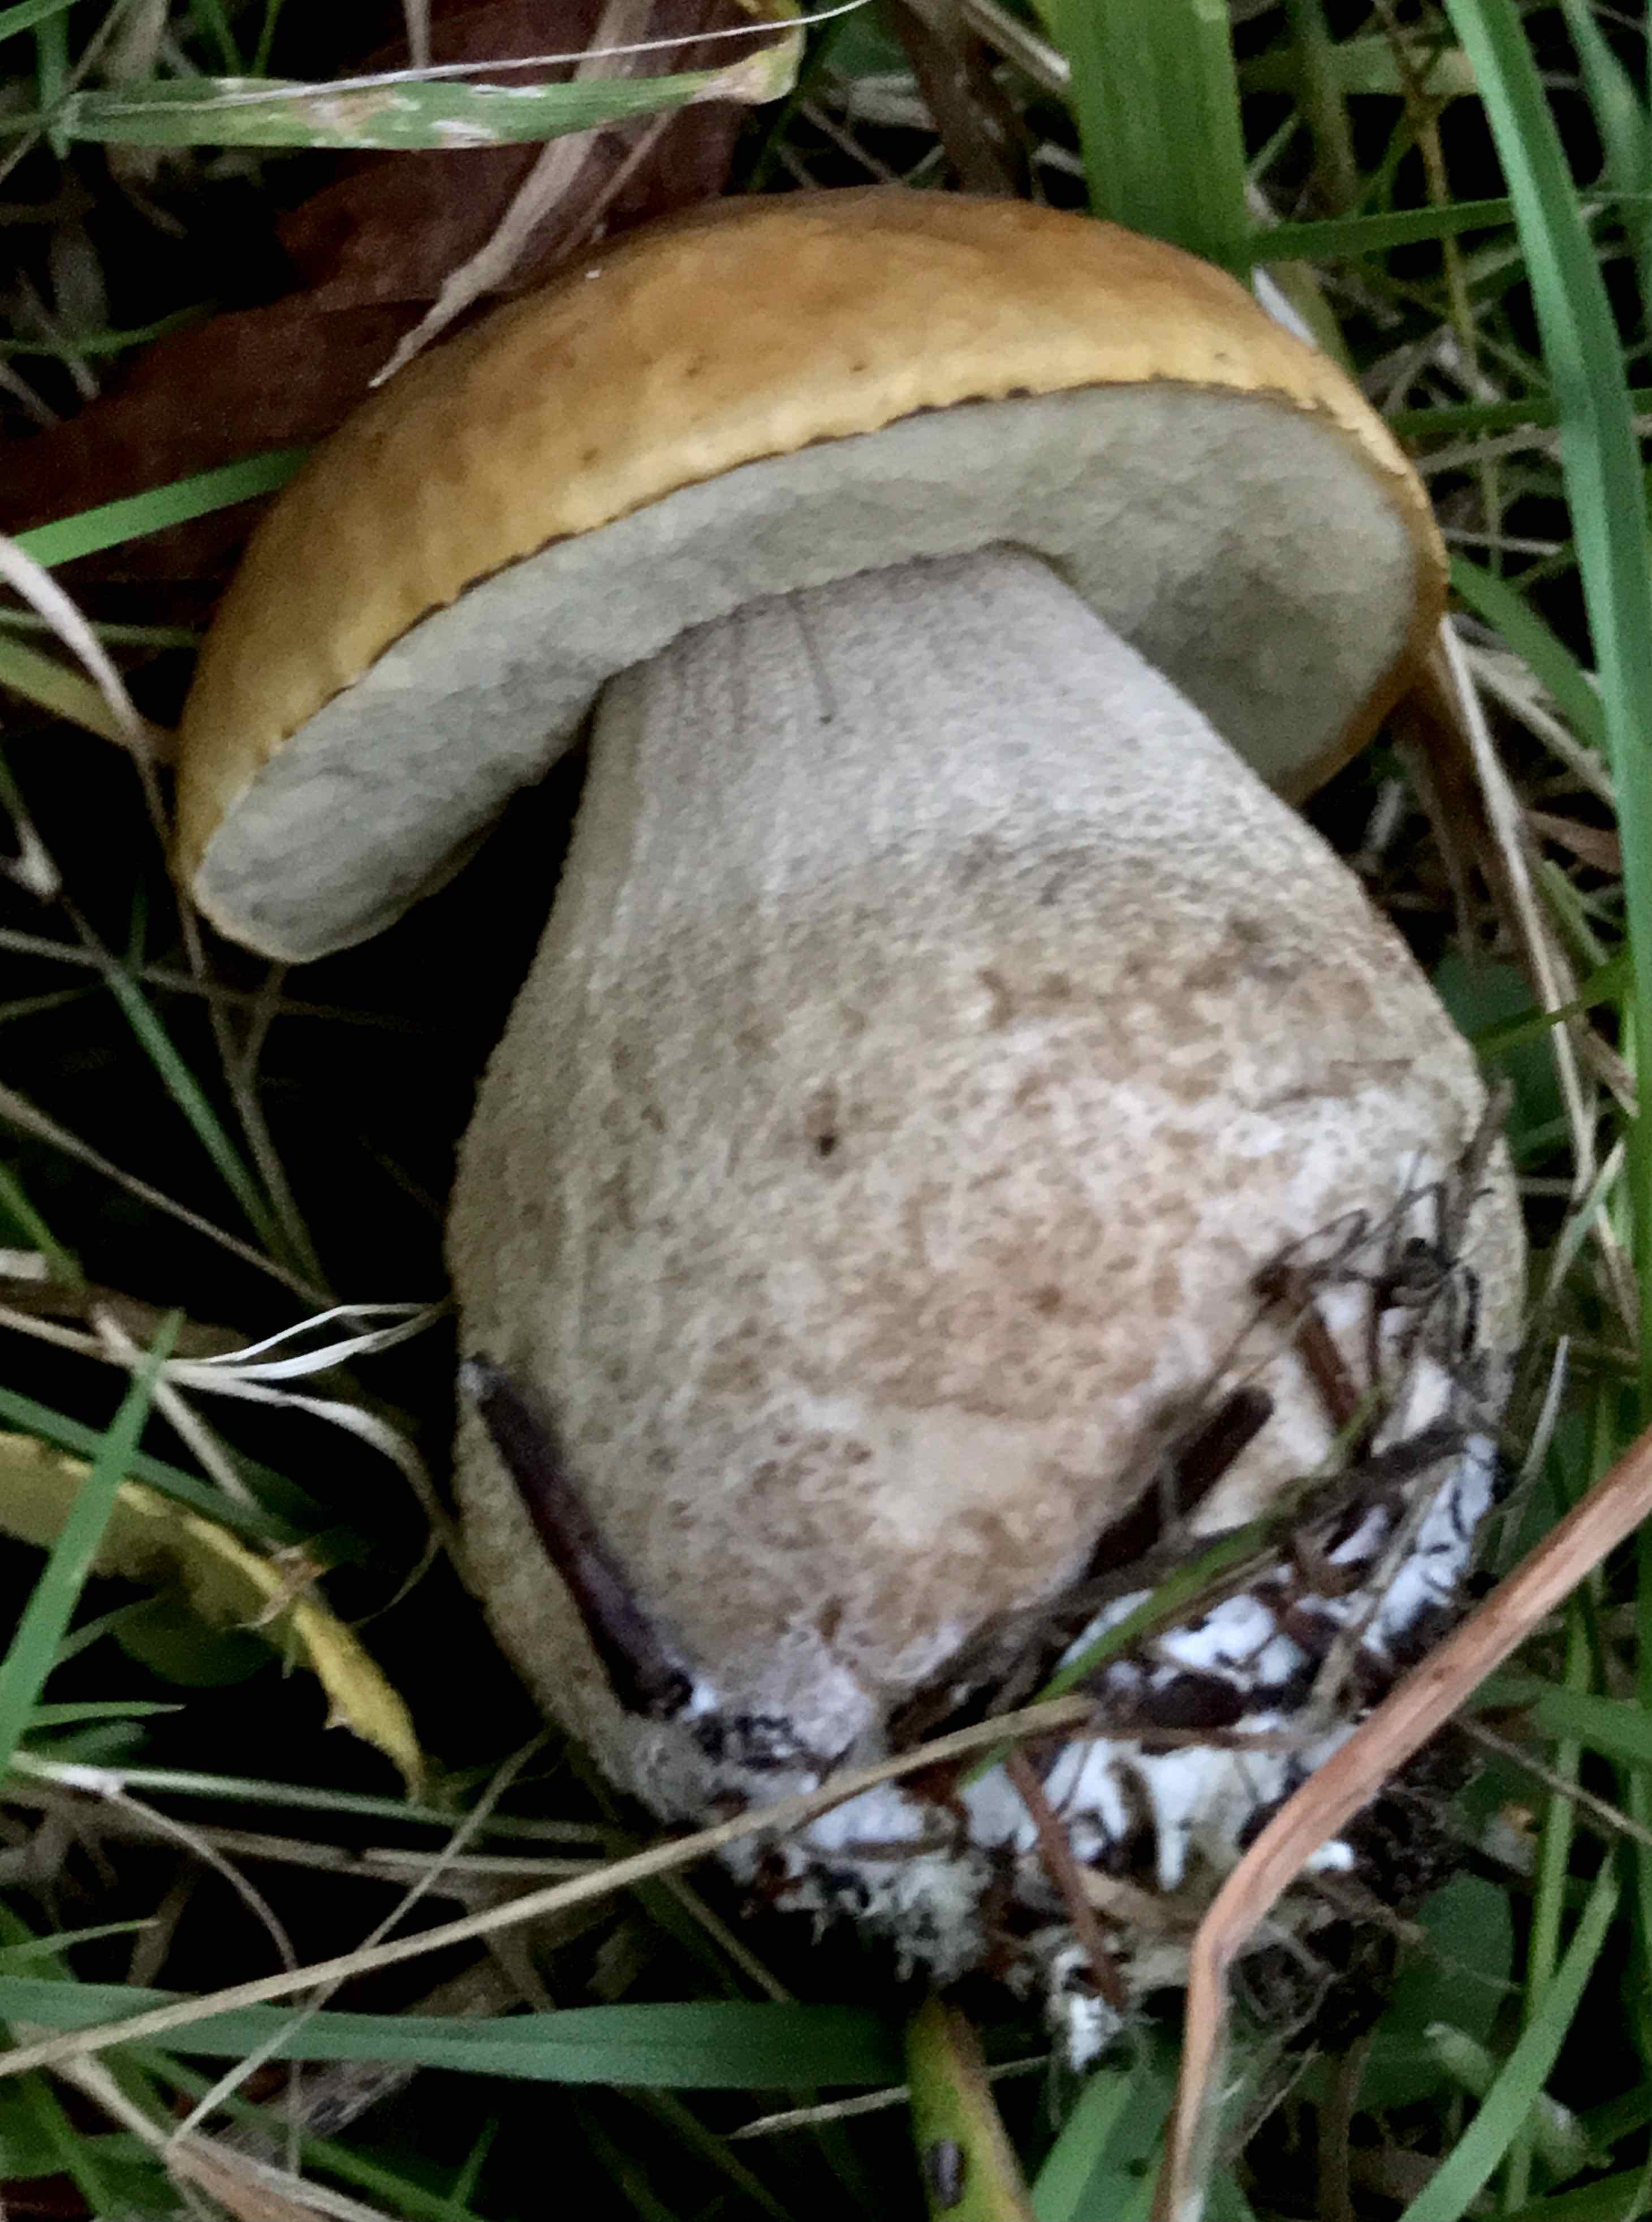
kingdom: Fungi
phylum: Basidiomycota
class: Agaricomycetes
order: Boletales
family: Boletaceae
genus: Boletus
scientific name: Boletus edulis
